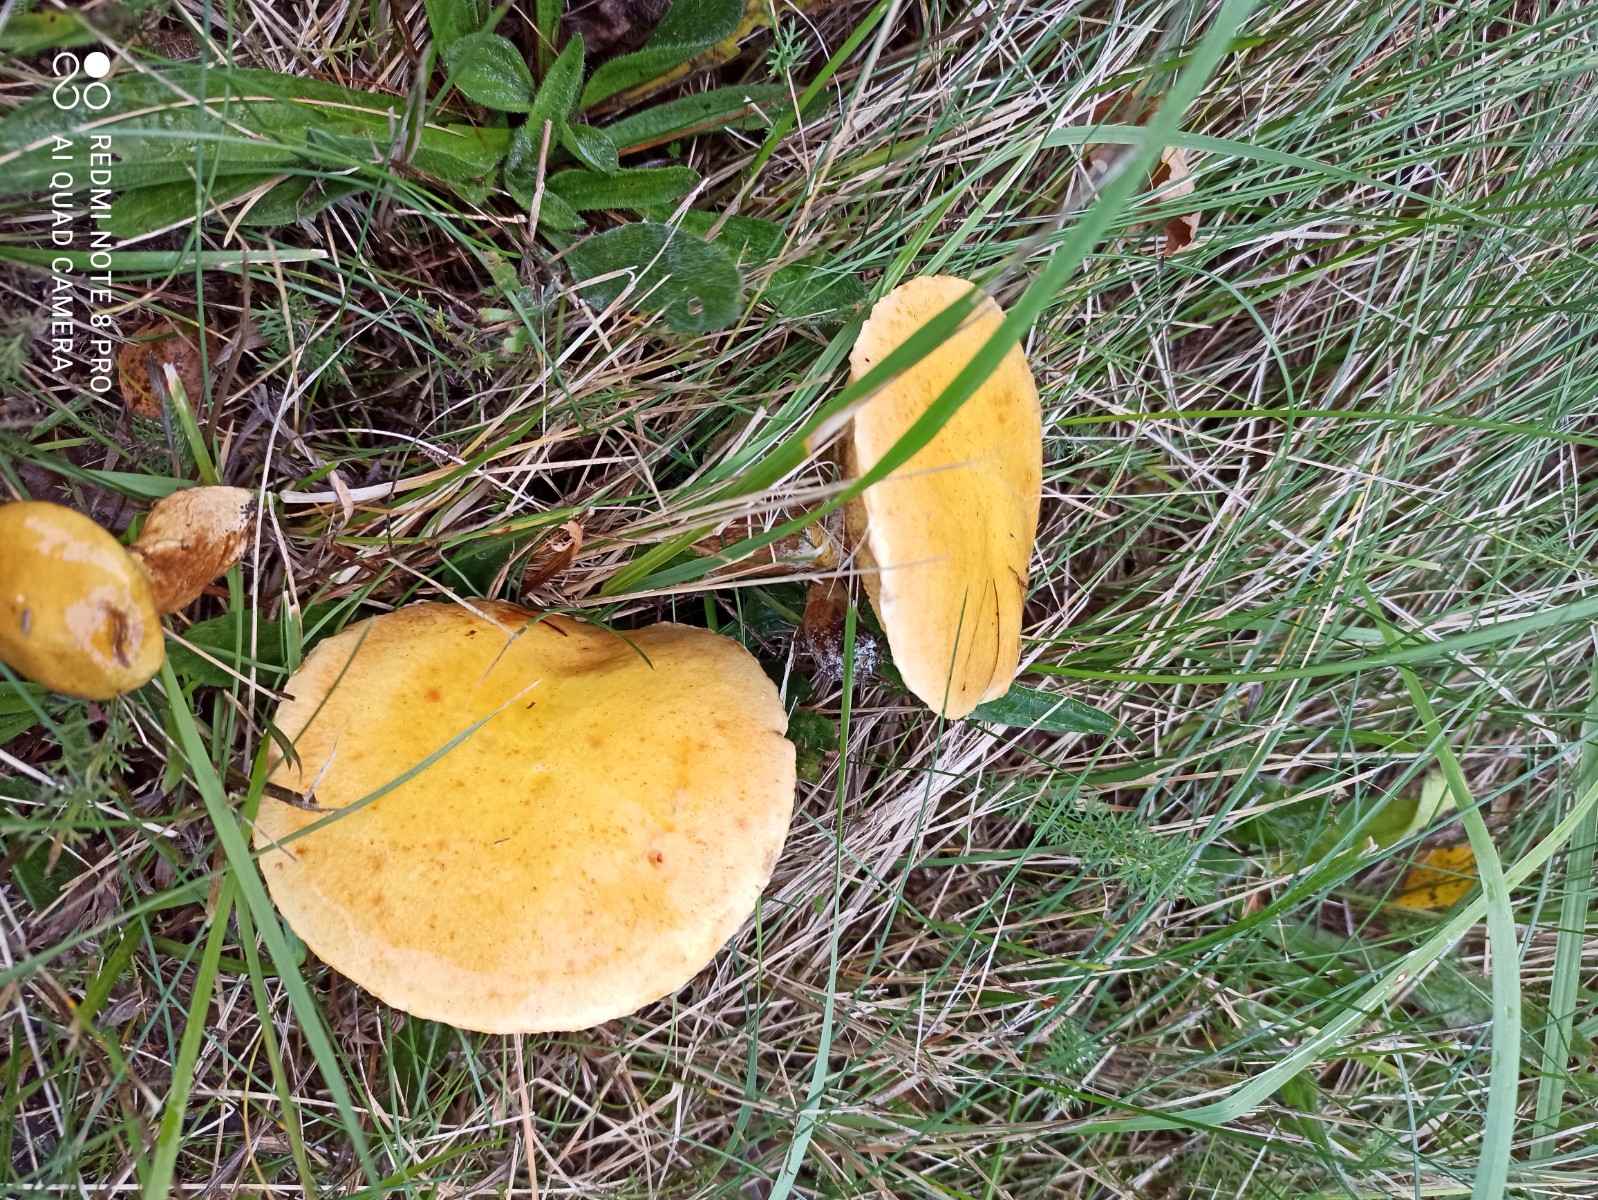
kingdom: Fungi
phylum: Basidiomycota
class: Agaricomycetes
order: Boletales
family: Suillaceae
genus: Suillus
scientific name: Suillus grevillei
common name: lærke-slimrørhat
